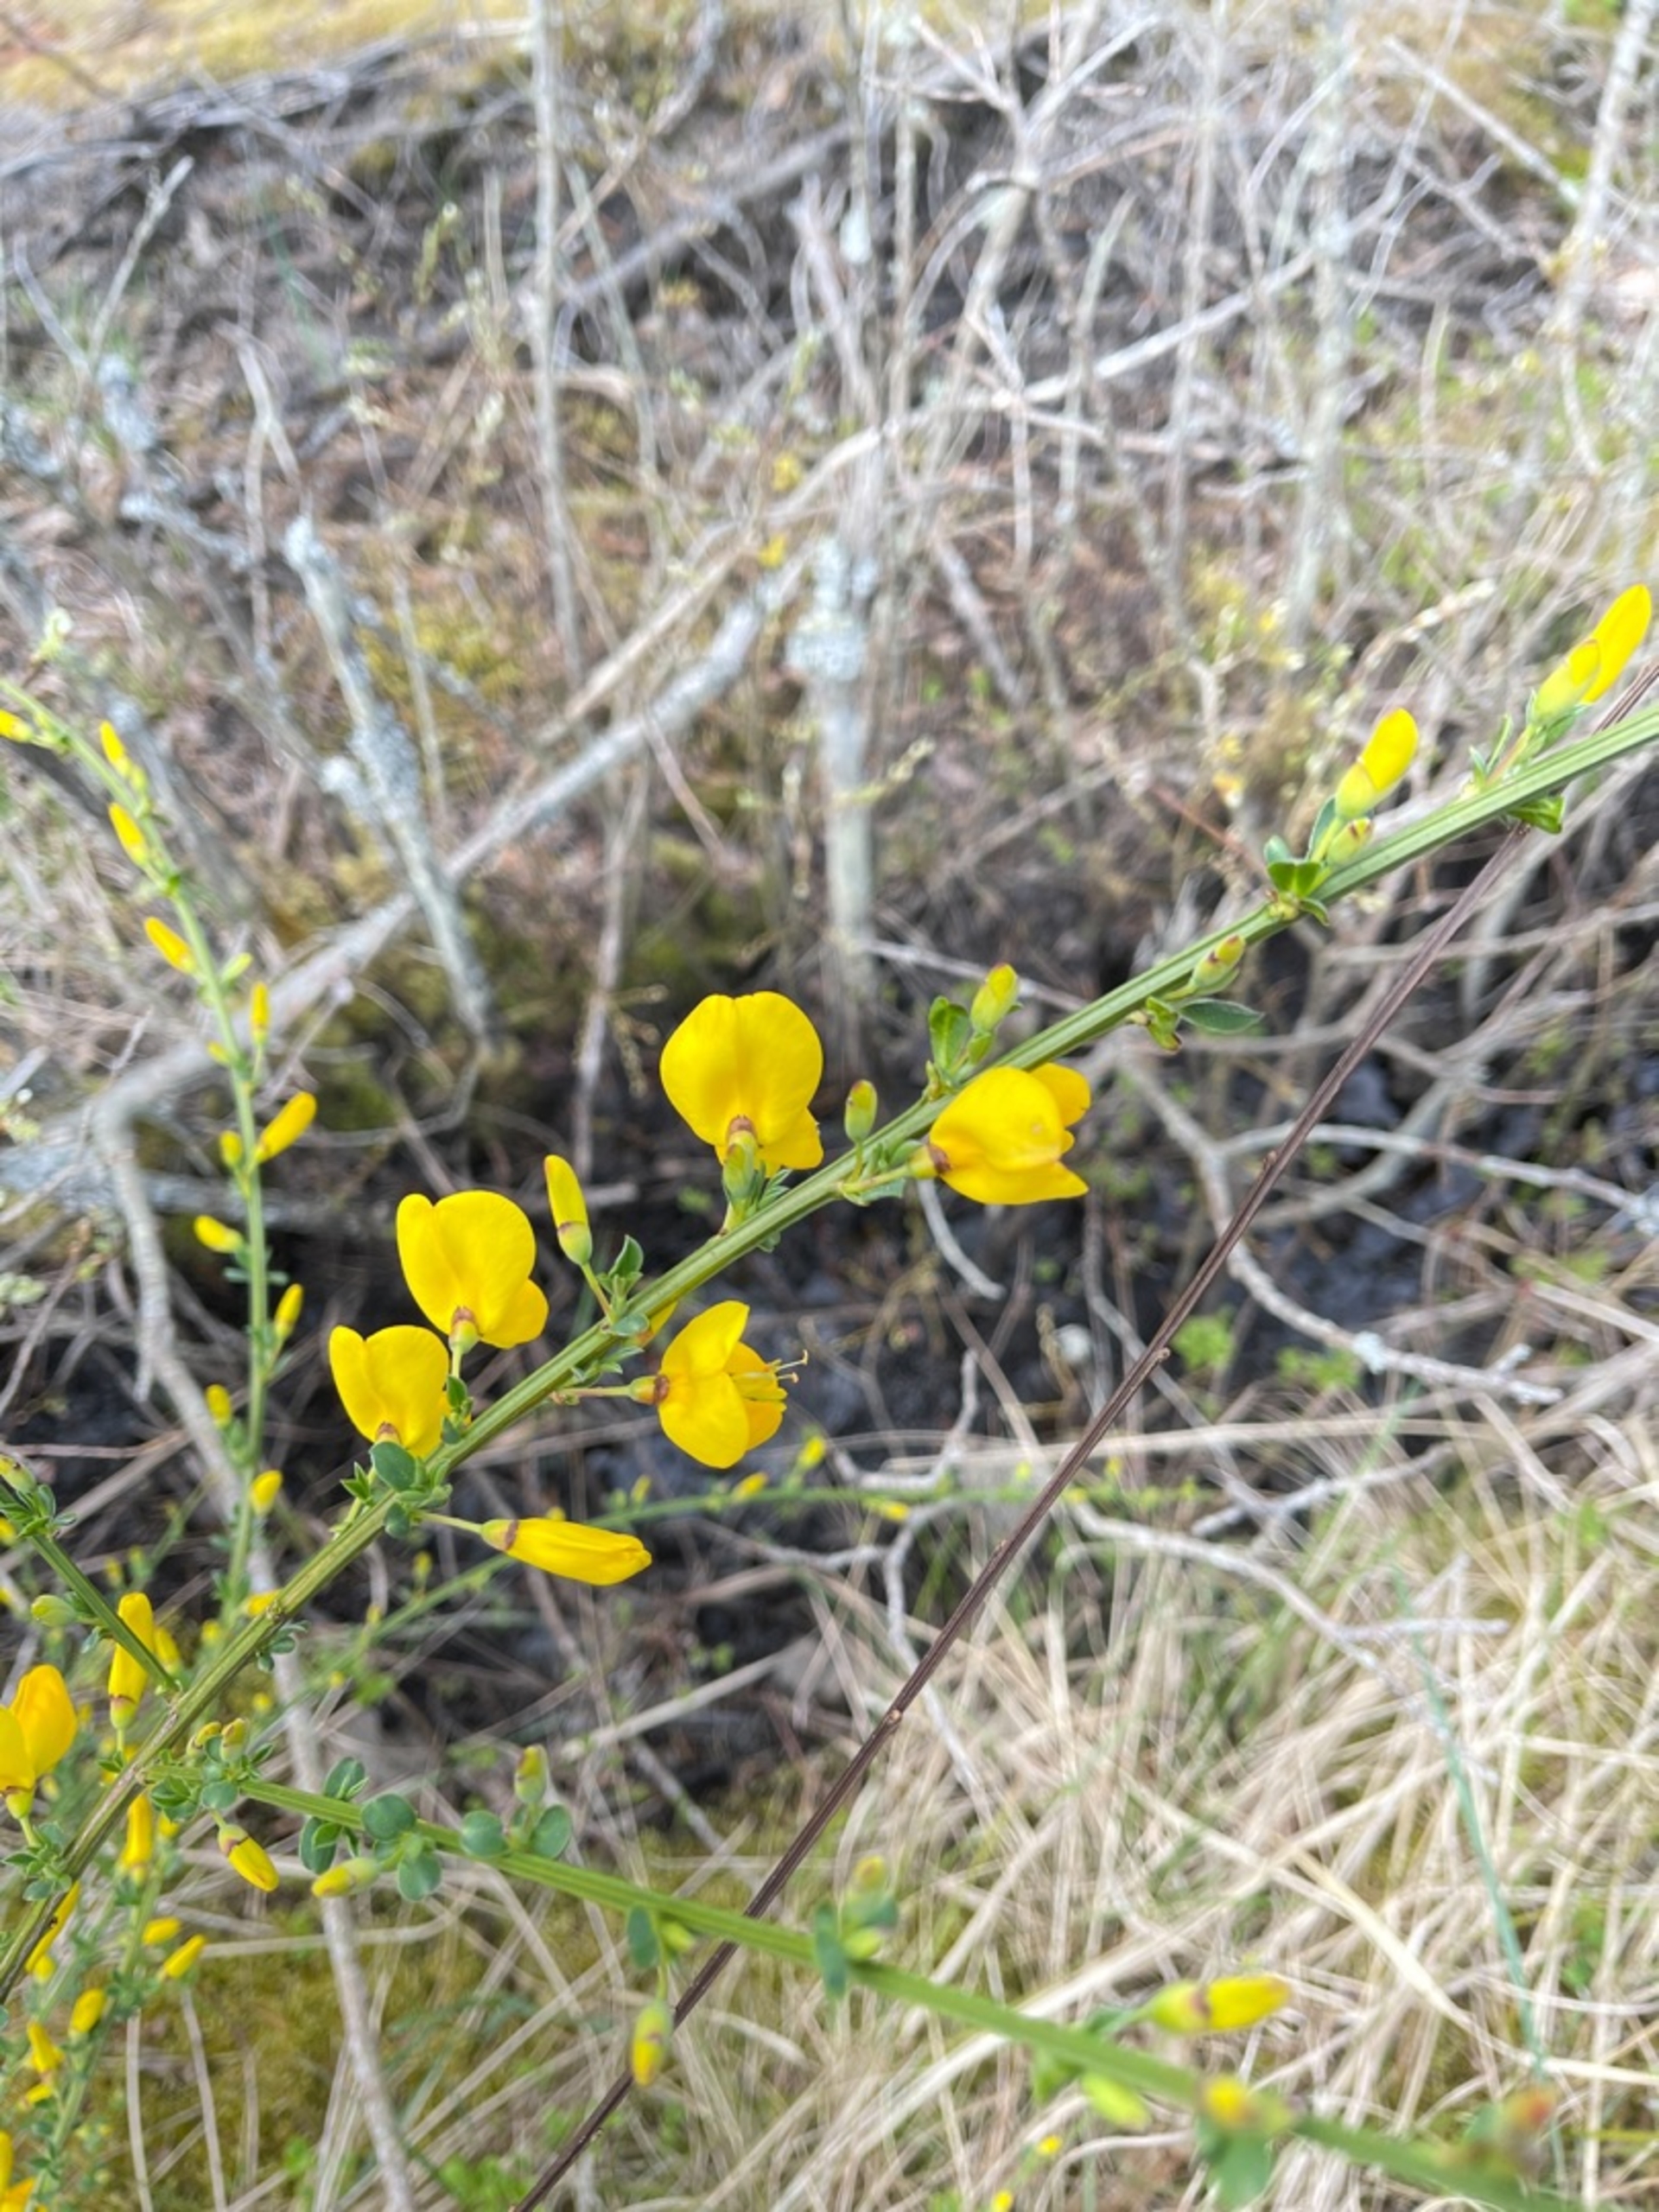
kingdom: Plantae
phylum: Tracheophyta
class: Magnoliopsida
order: Fabales
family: Fabaceae
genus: Cytisus
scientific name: Cytisus scoparius
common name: Almindelig gyvel
